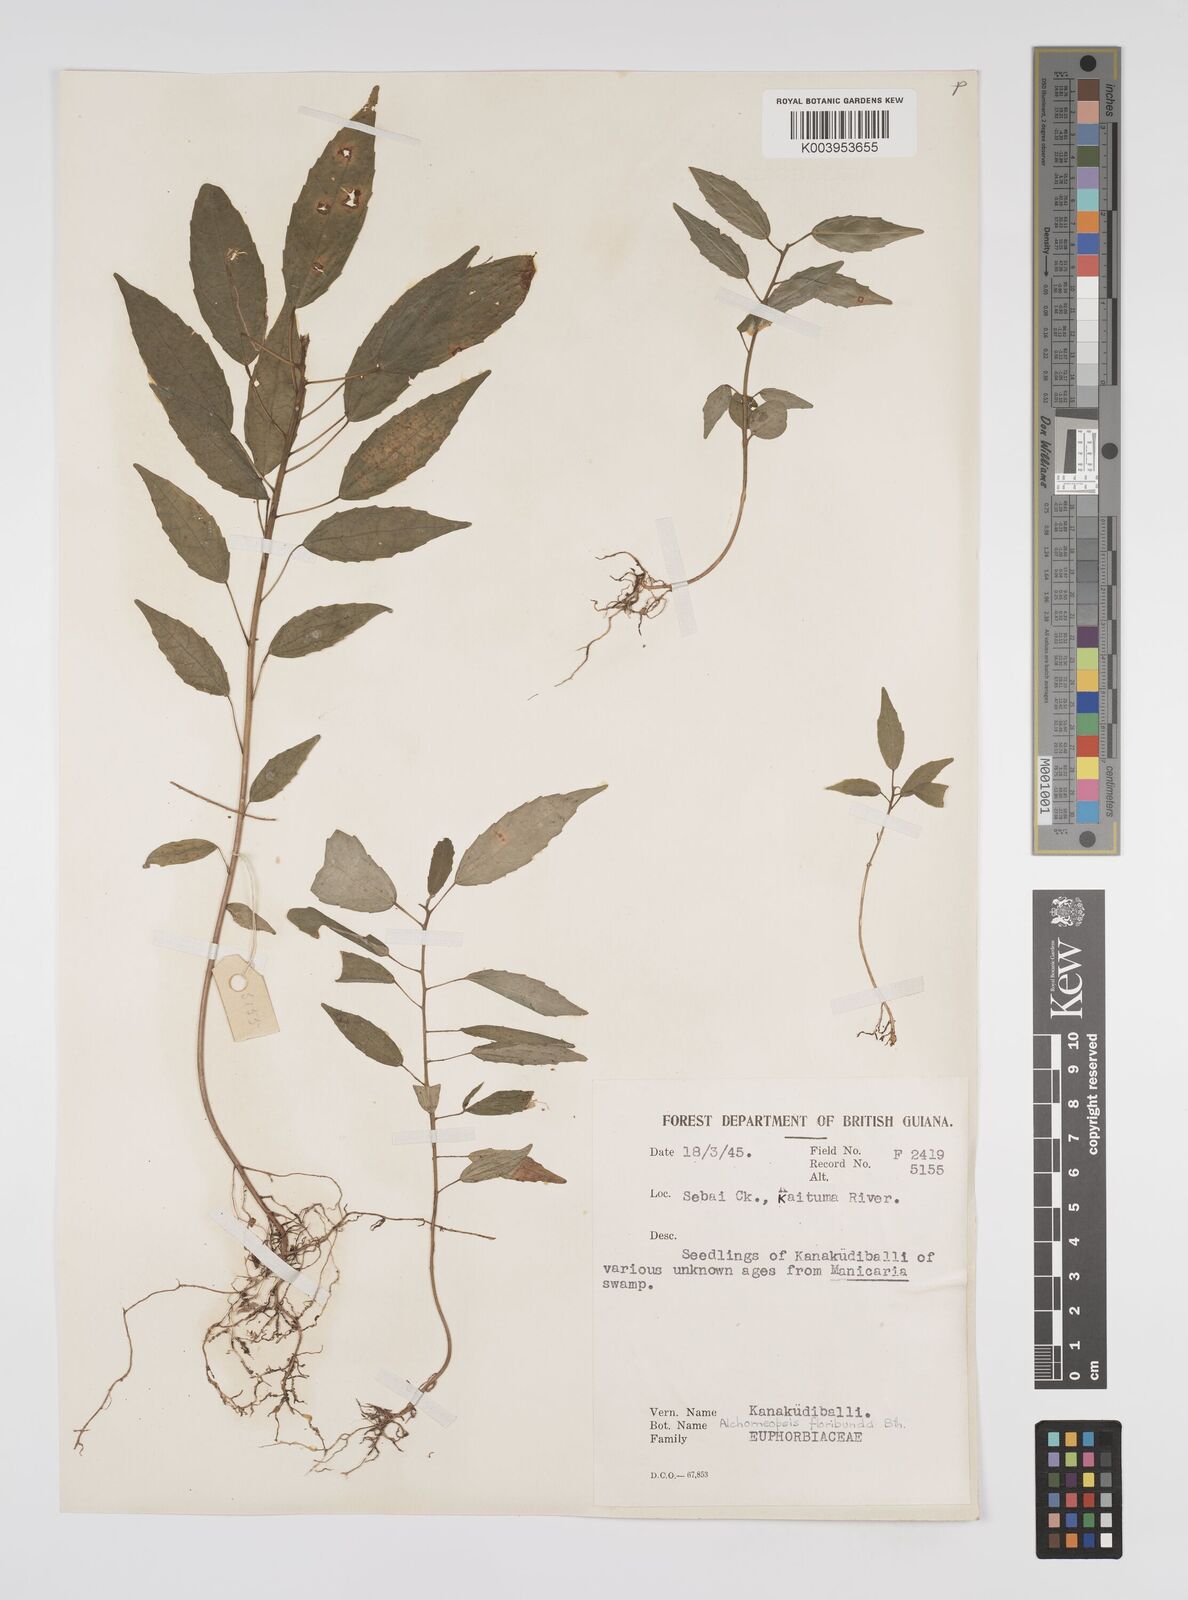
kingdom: Plantae
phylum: Tracheophyta
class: Magnoliopsida
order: Malpighiales
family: Euphorbiaceae
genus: Alchorneopsis
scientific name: Alchorneopsis floribunda
